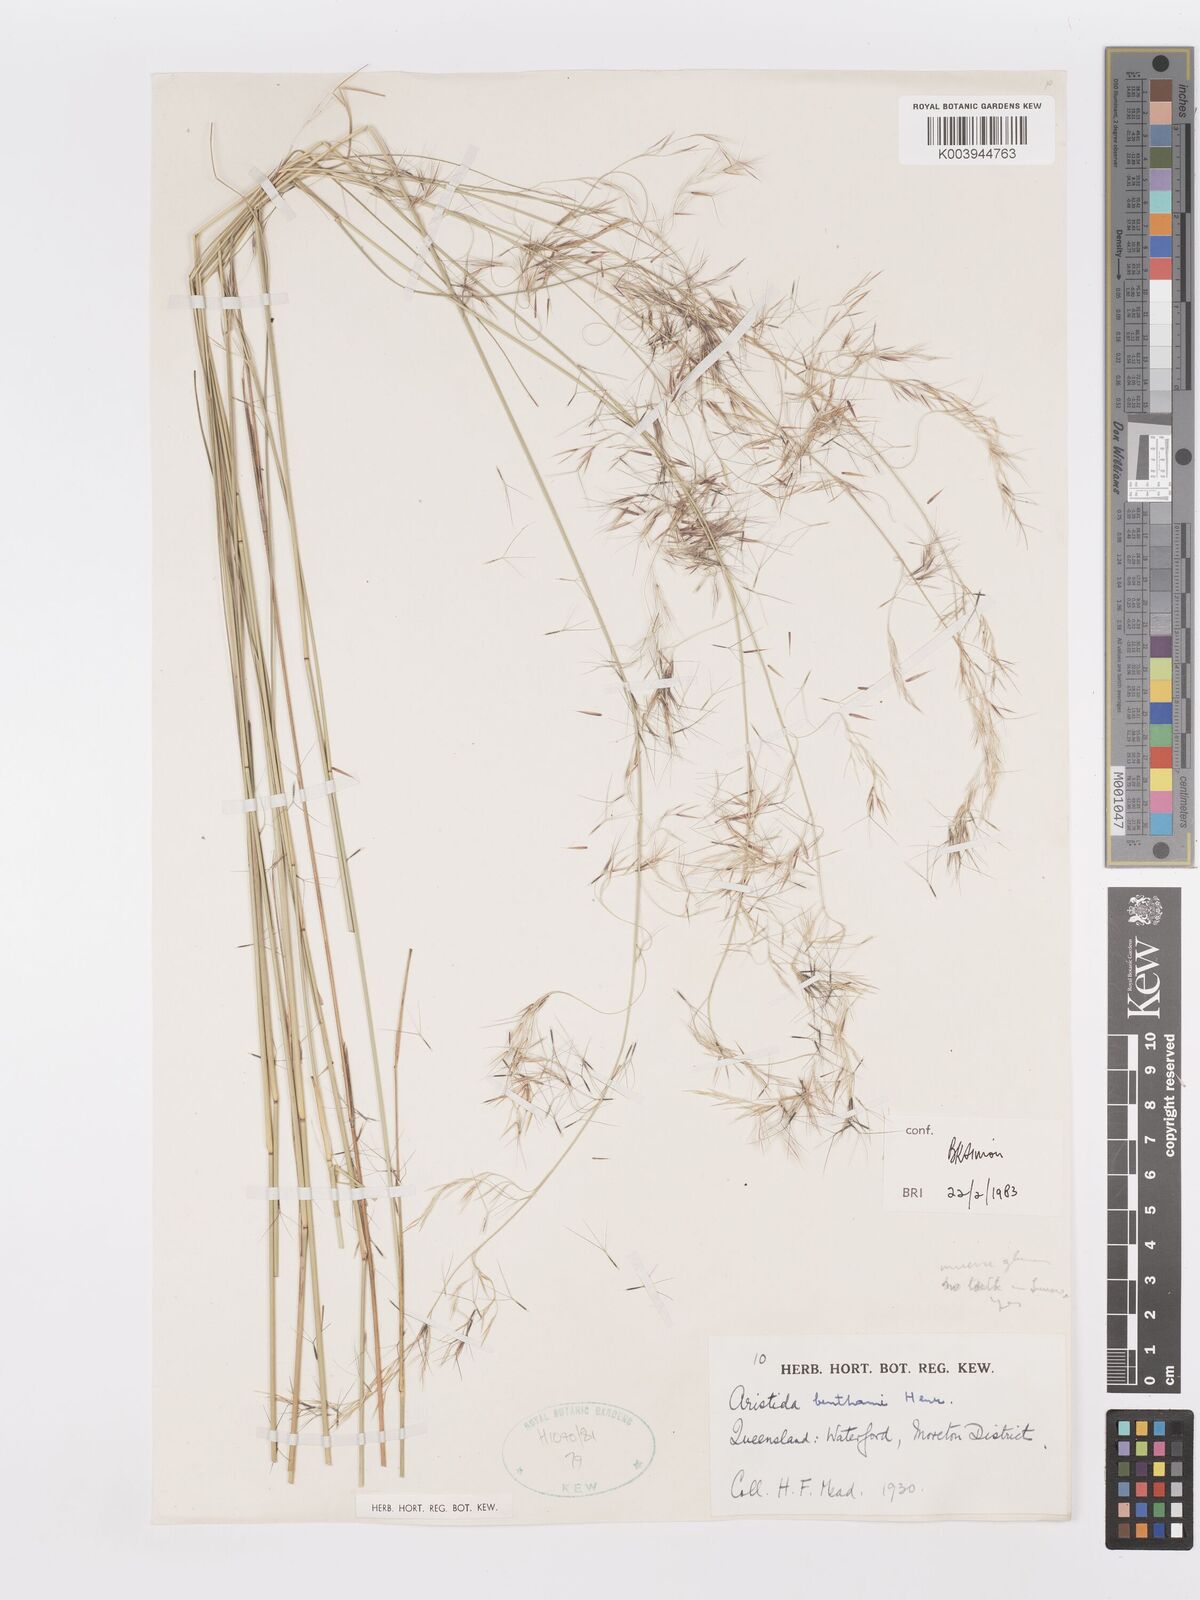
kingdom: Plantae
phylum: Tracheophyta
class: Liliopsida
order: Poales
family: Poaceae
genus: Aristida
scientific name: Aristida benthamii
